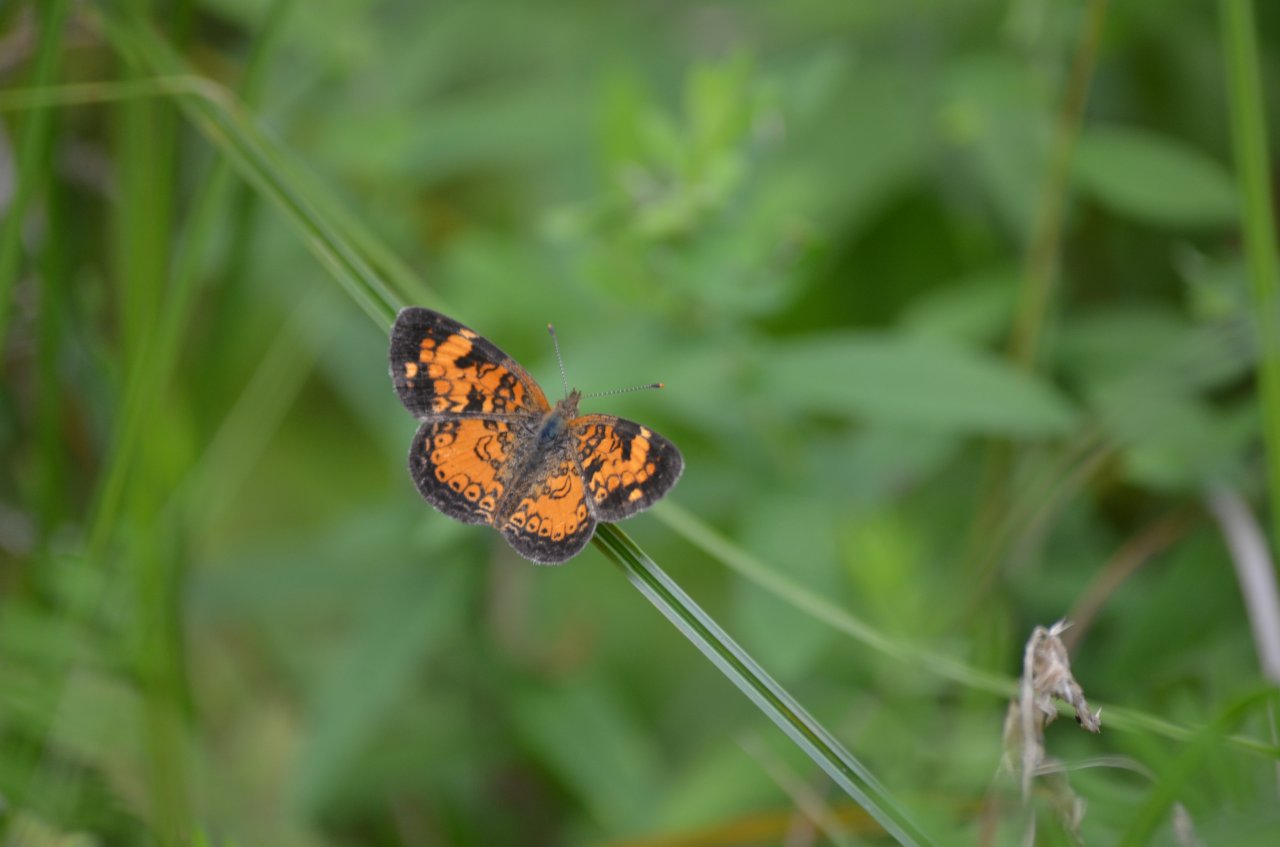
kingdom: Animalia
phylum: Arthropoda
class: Insecta
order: Lepidoptera
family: Nymphalidae
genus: Phyciodes
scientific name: Phyciodes tharos
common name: Northern Crescent
